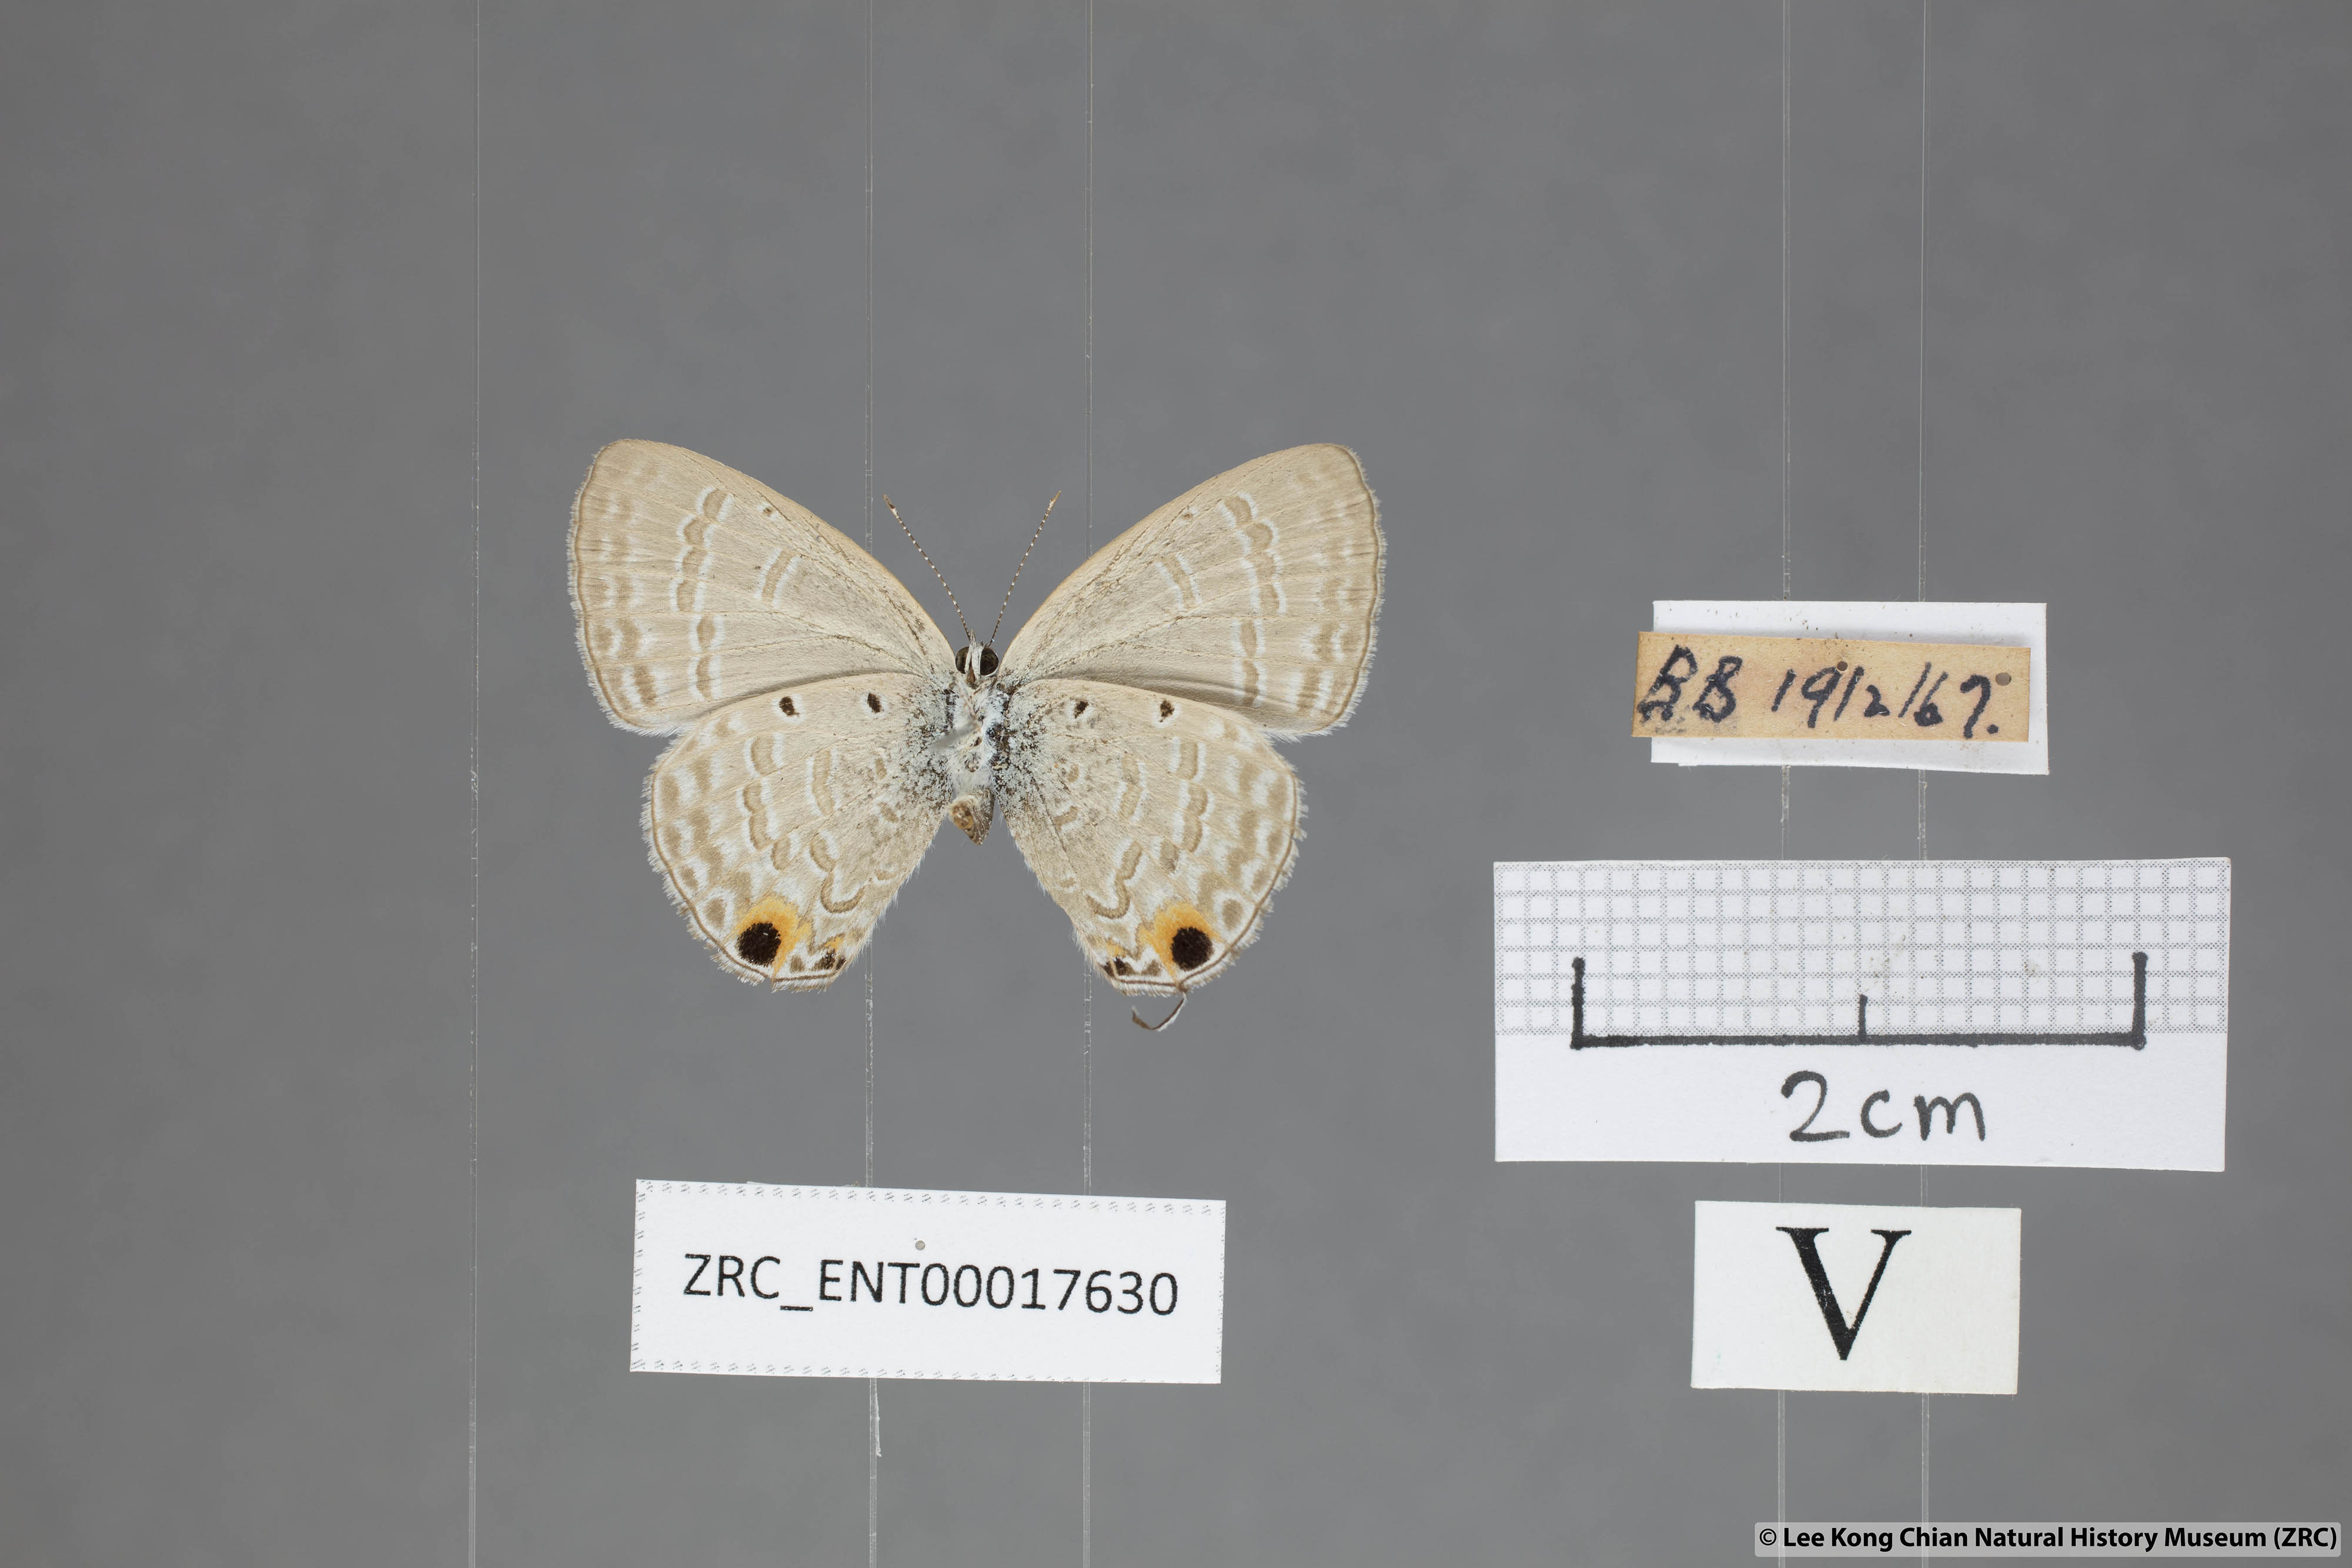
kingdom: Animalia
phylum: Arthropoda
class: Insecta
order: Lepidoptera
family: Lycaenidae
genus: Catochrysops
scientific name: Catochrysops strabo
